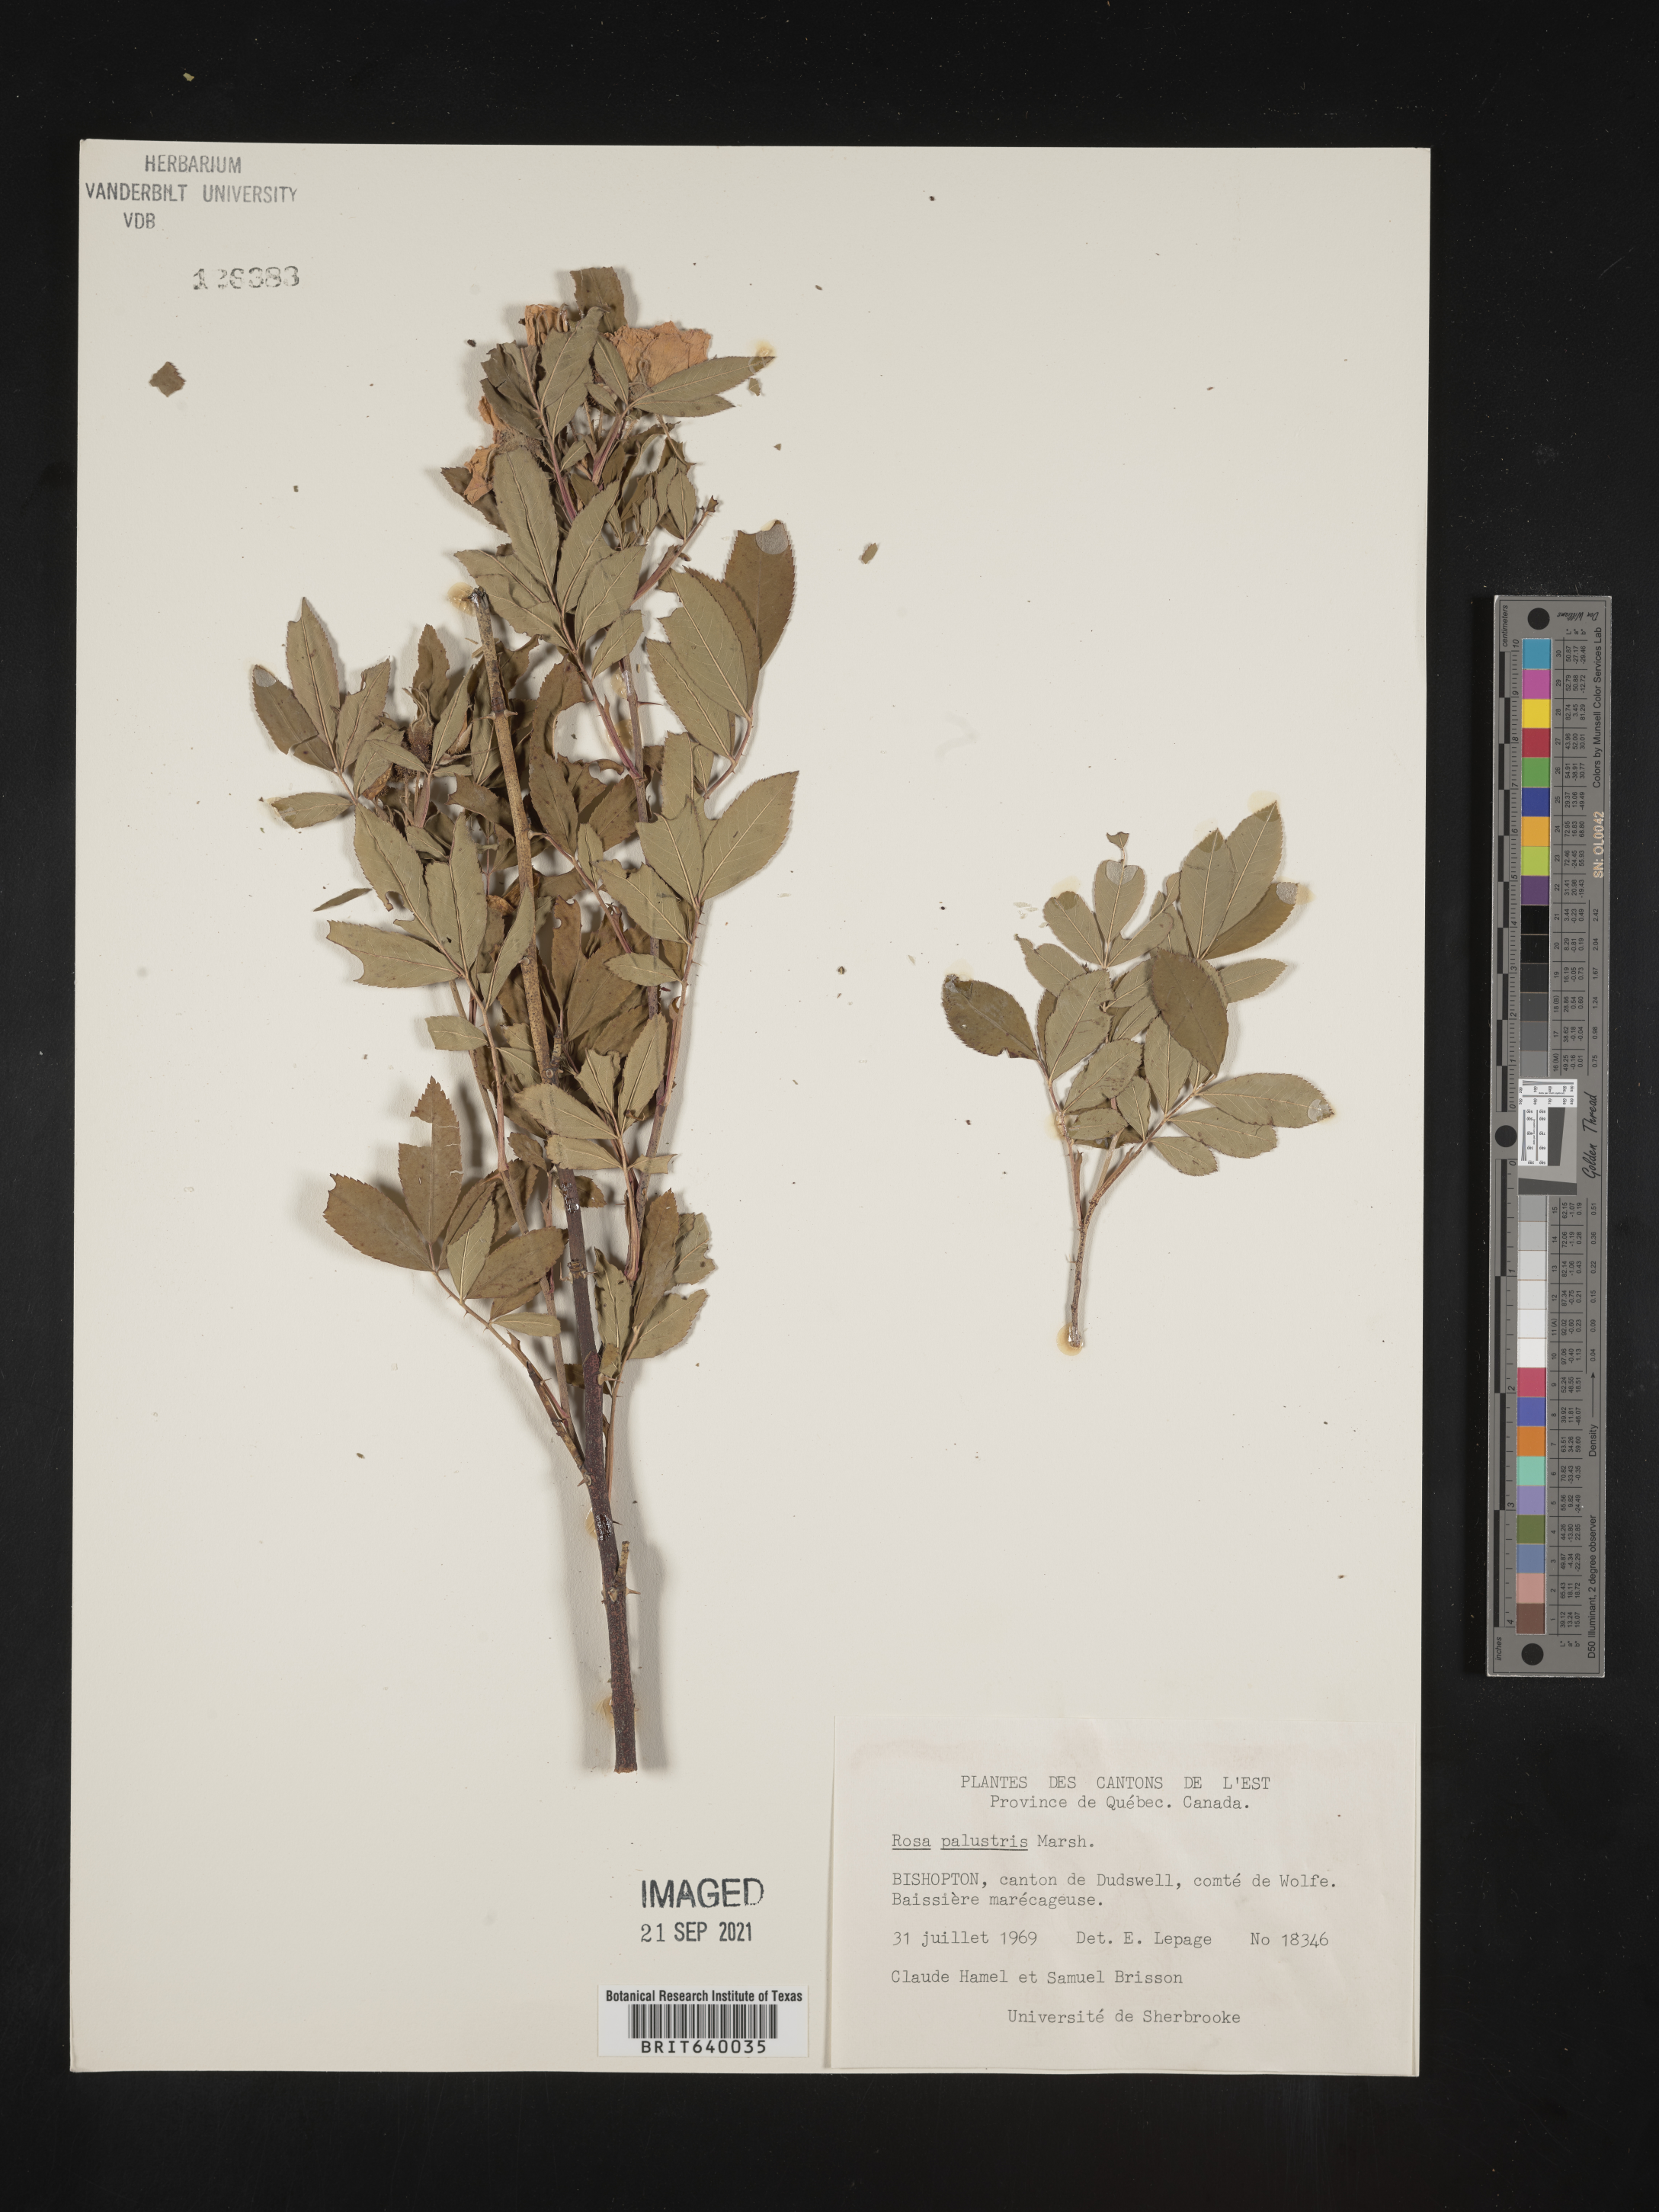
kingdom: Plantae
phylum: Tracheophyta
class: Magnoliopsida
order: Rosales
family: Rosaceae
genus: Rosa
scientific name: Rosa
